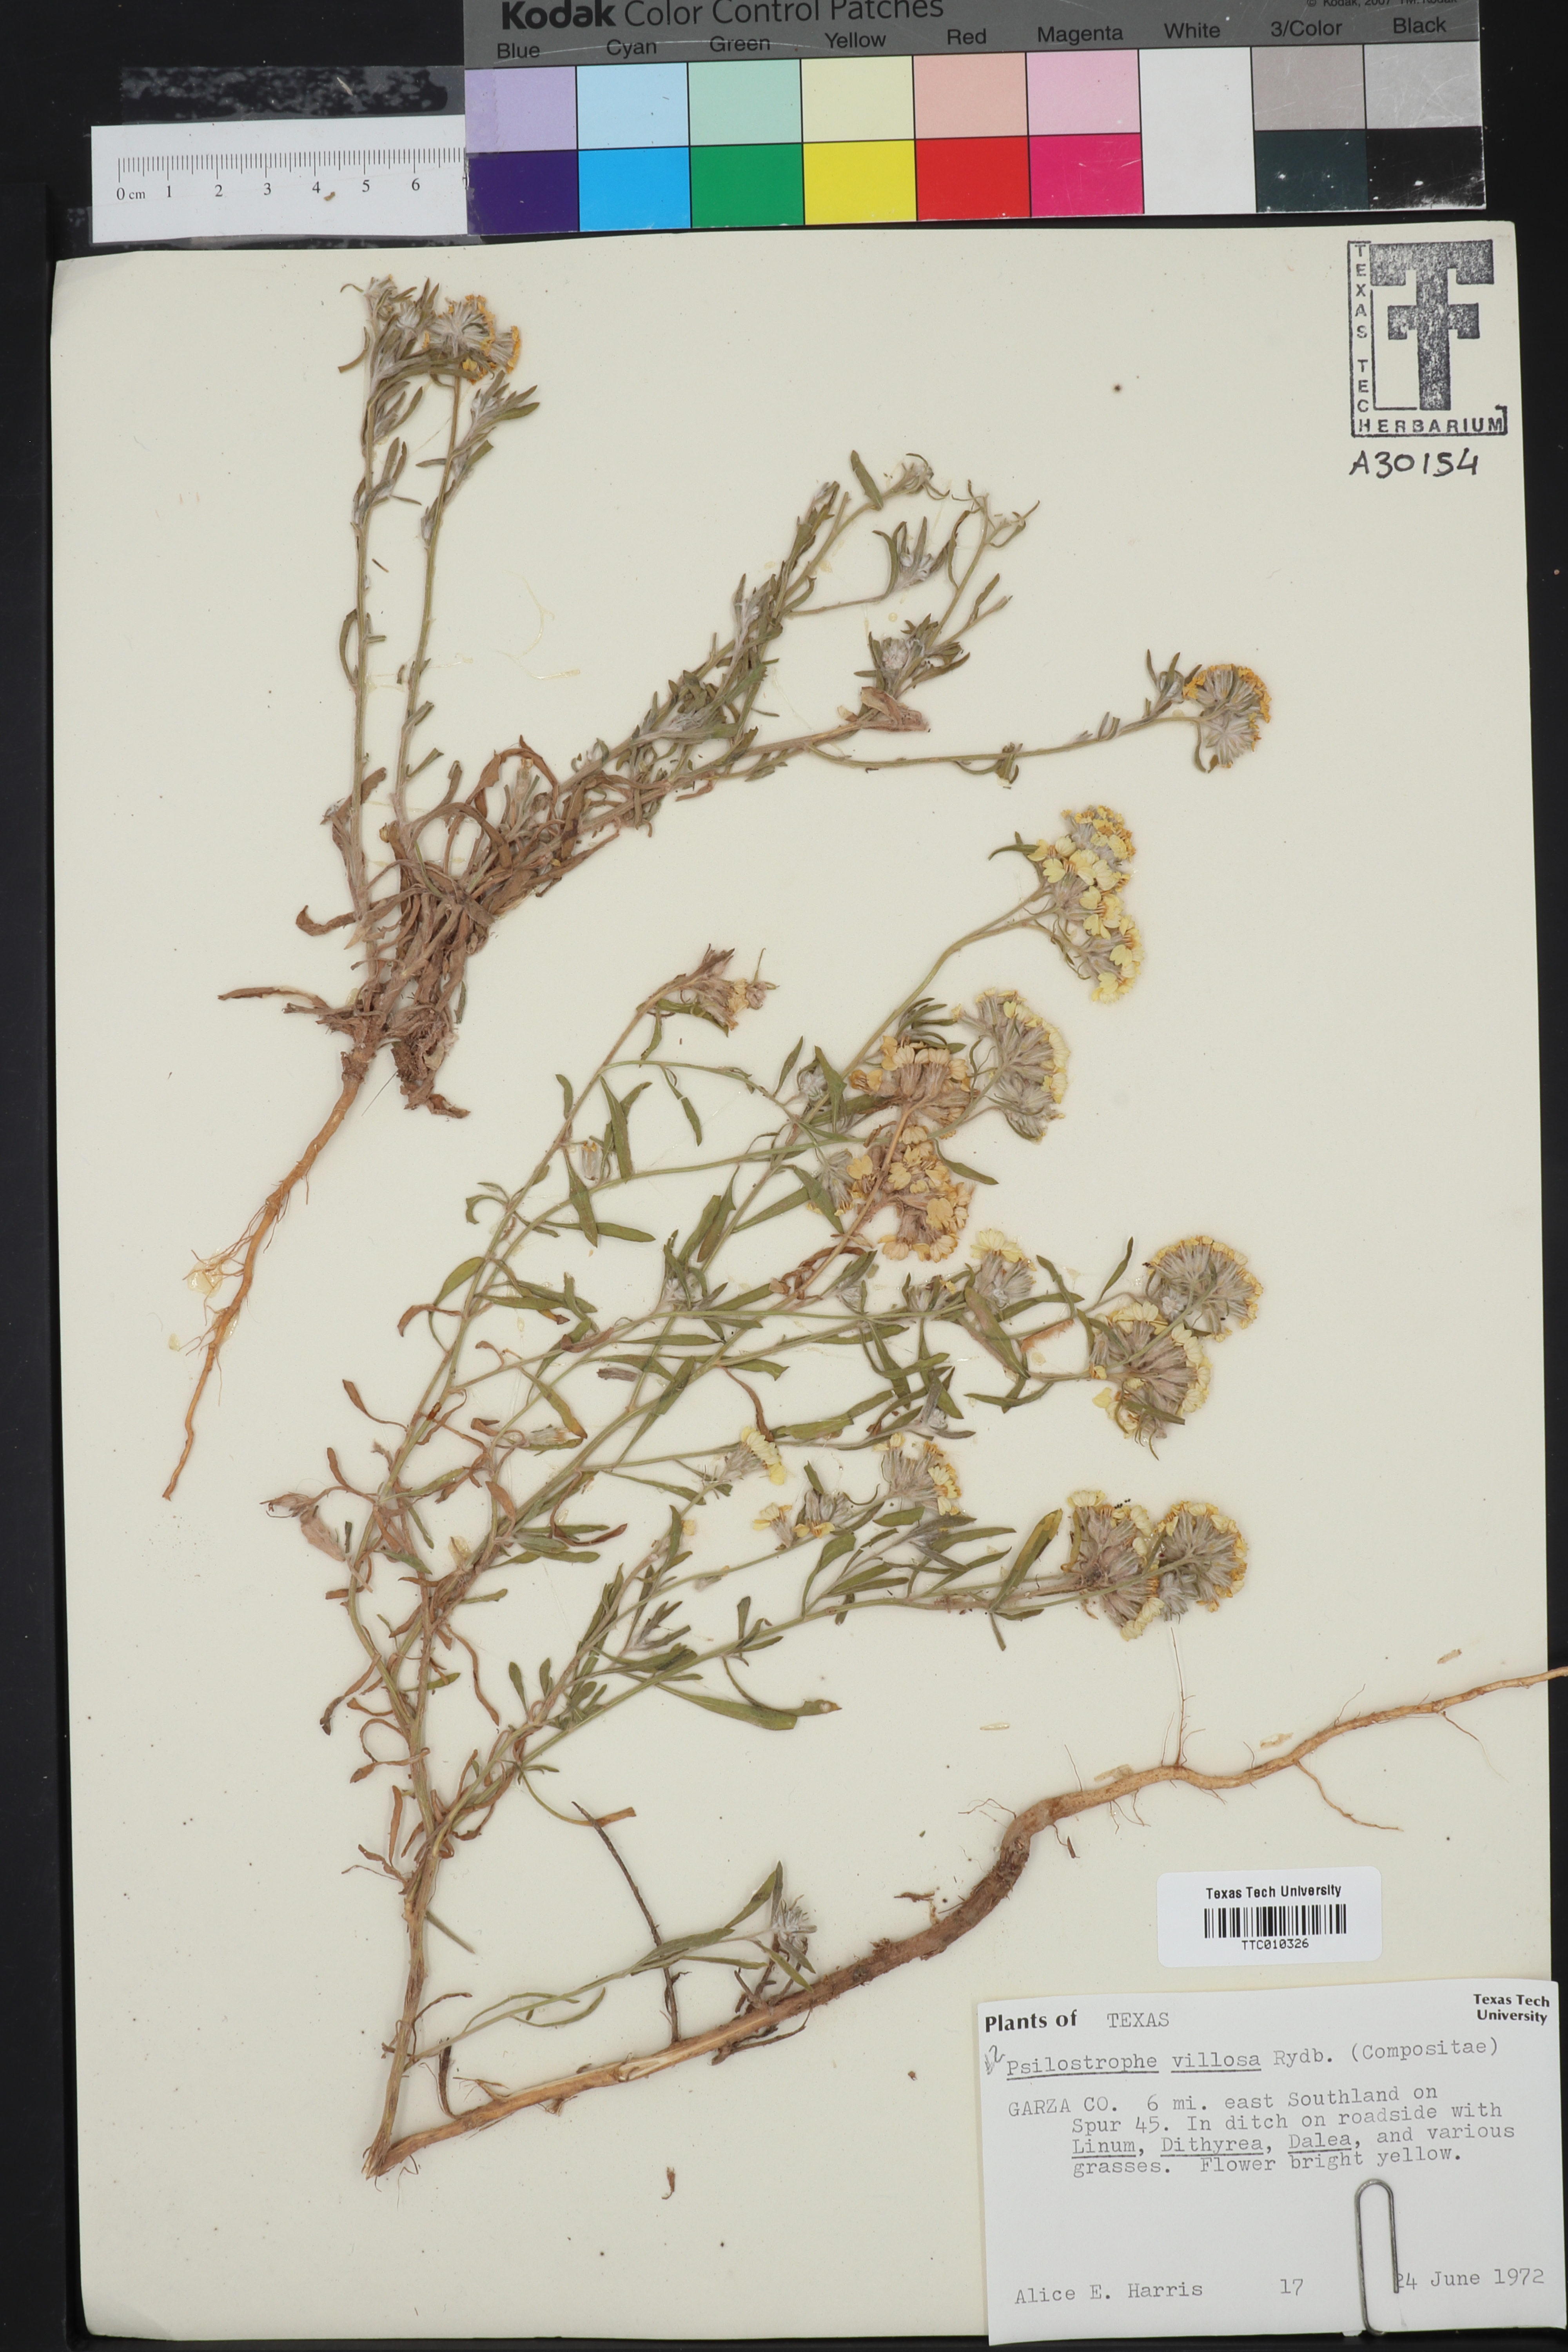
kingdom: Plantae
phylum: Tracheophyta
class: Magnoliopsida
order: Asterales
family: Asteraceae
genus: Psilostrophe
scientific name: Psilostrophe villosa
